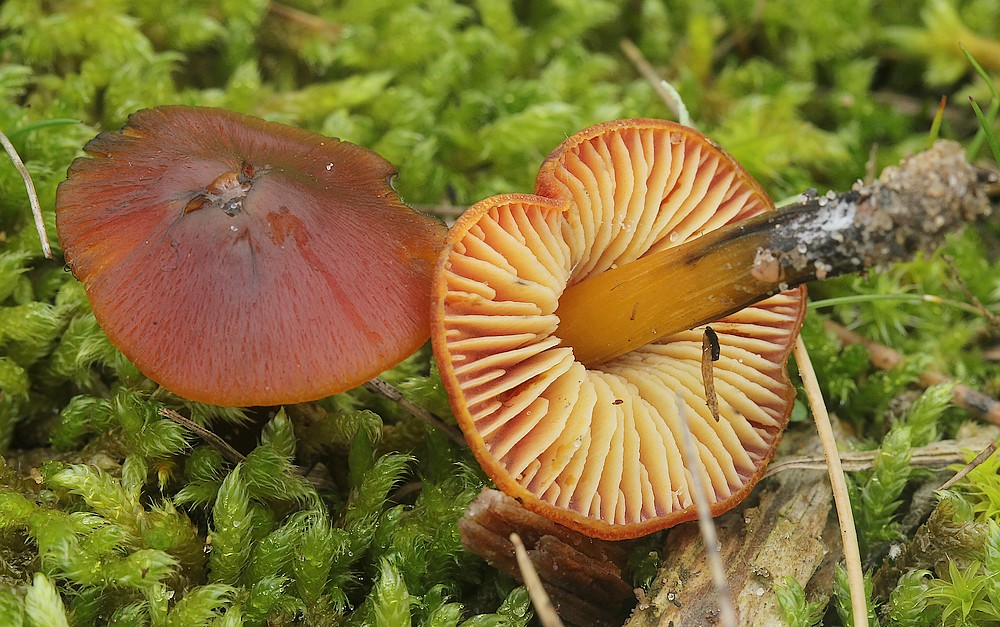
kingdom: Fungi
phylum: Basidiomycota
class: Agaricomycetes
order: Agaricales
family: Hygrophoraceae
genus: Hygrocybe
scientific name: Hygrocybe conica
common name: kegle-vokshat
